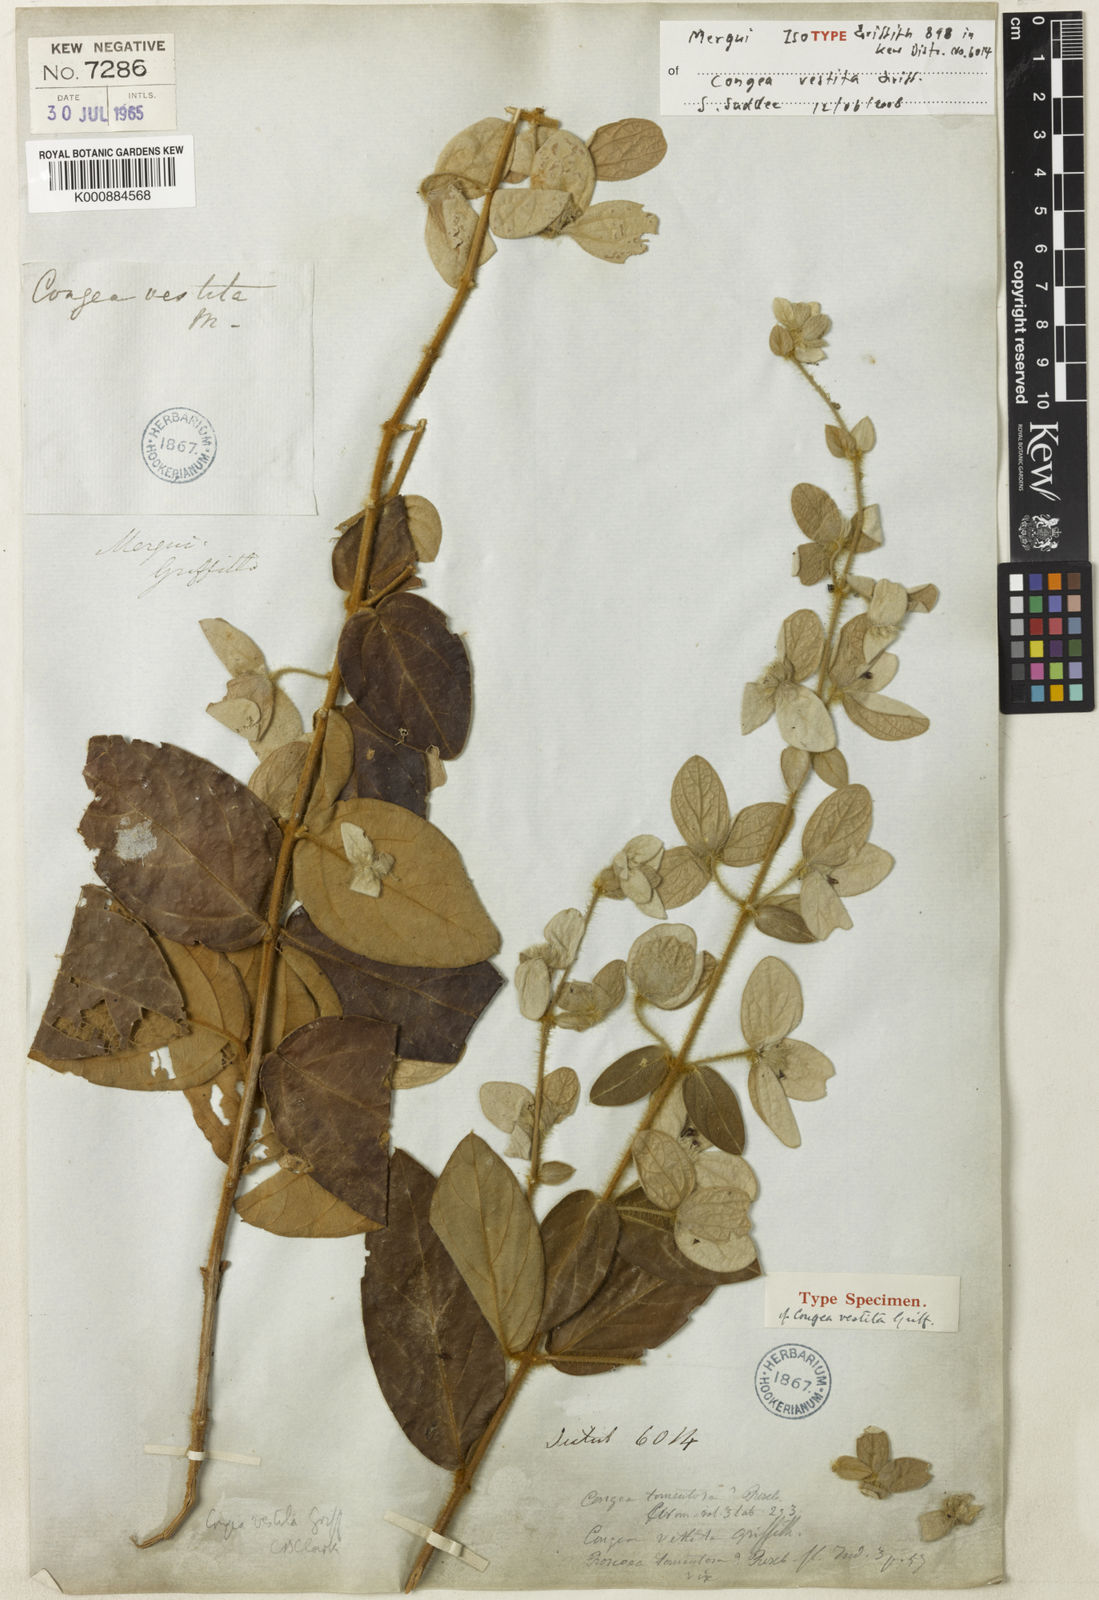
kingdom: Plantae
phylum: Tracheophyta
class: Magnoliopsida
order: Lamiales
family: Lamiaceae
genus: Congea
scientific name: Congea vestita
